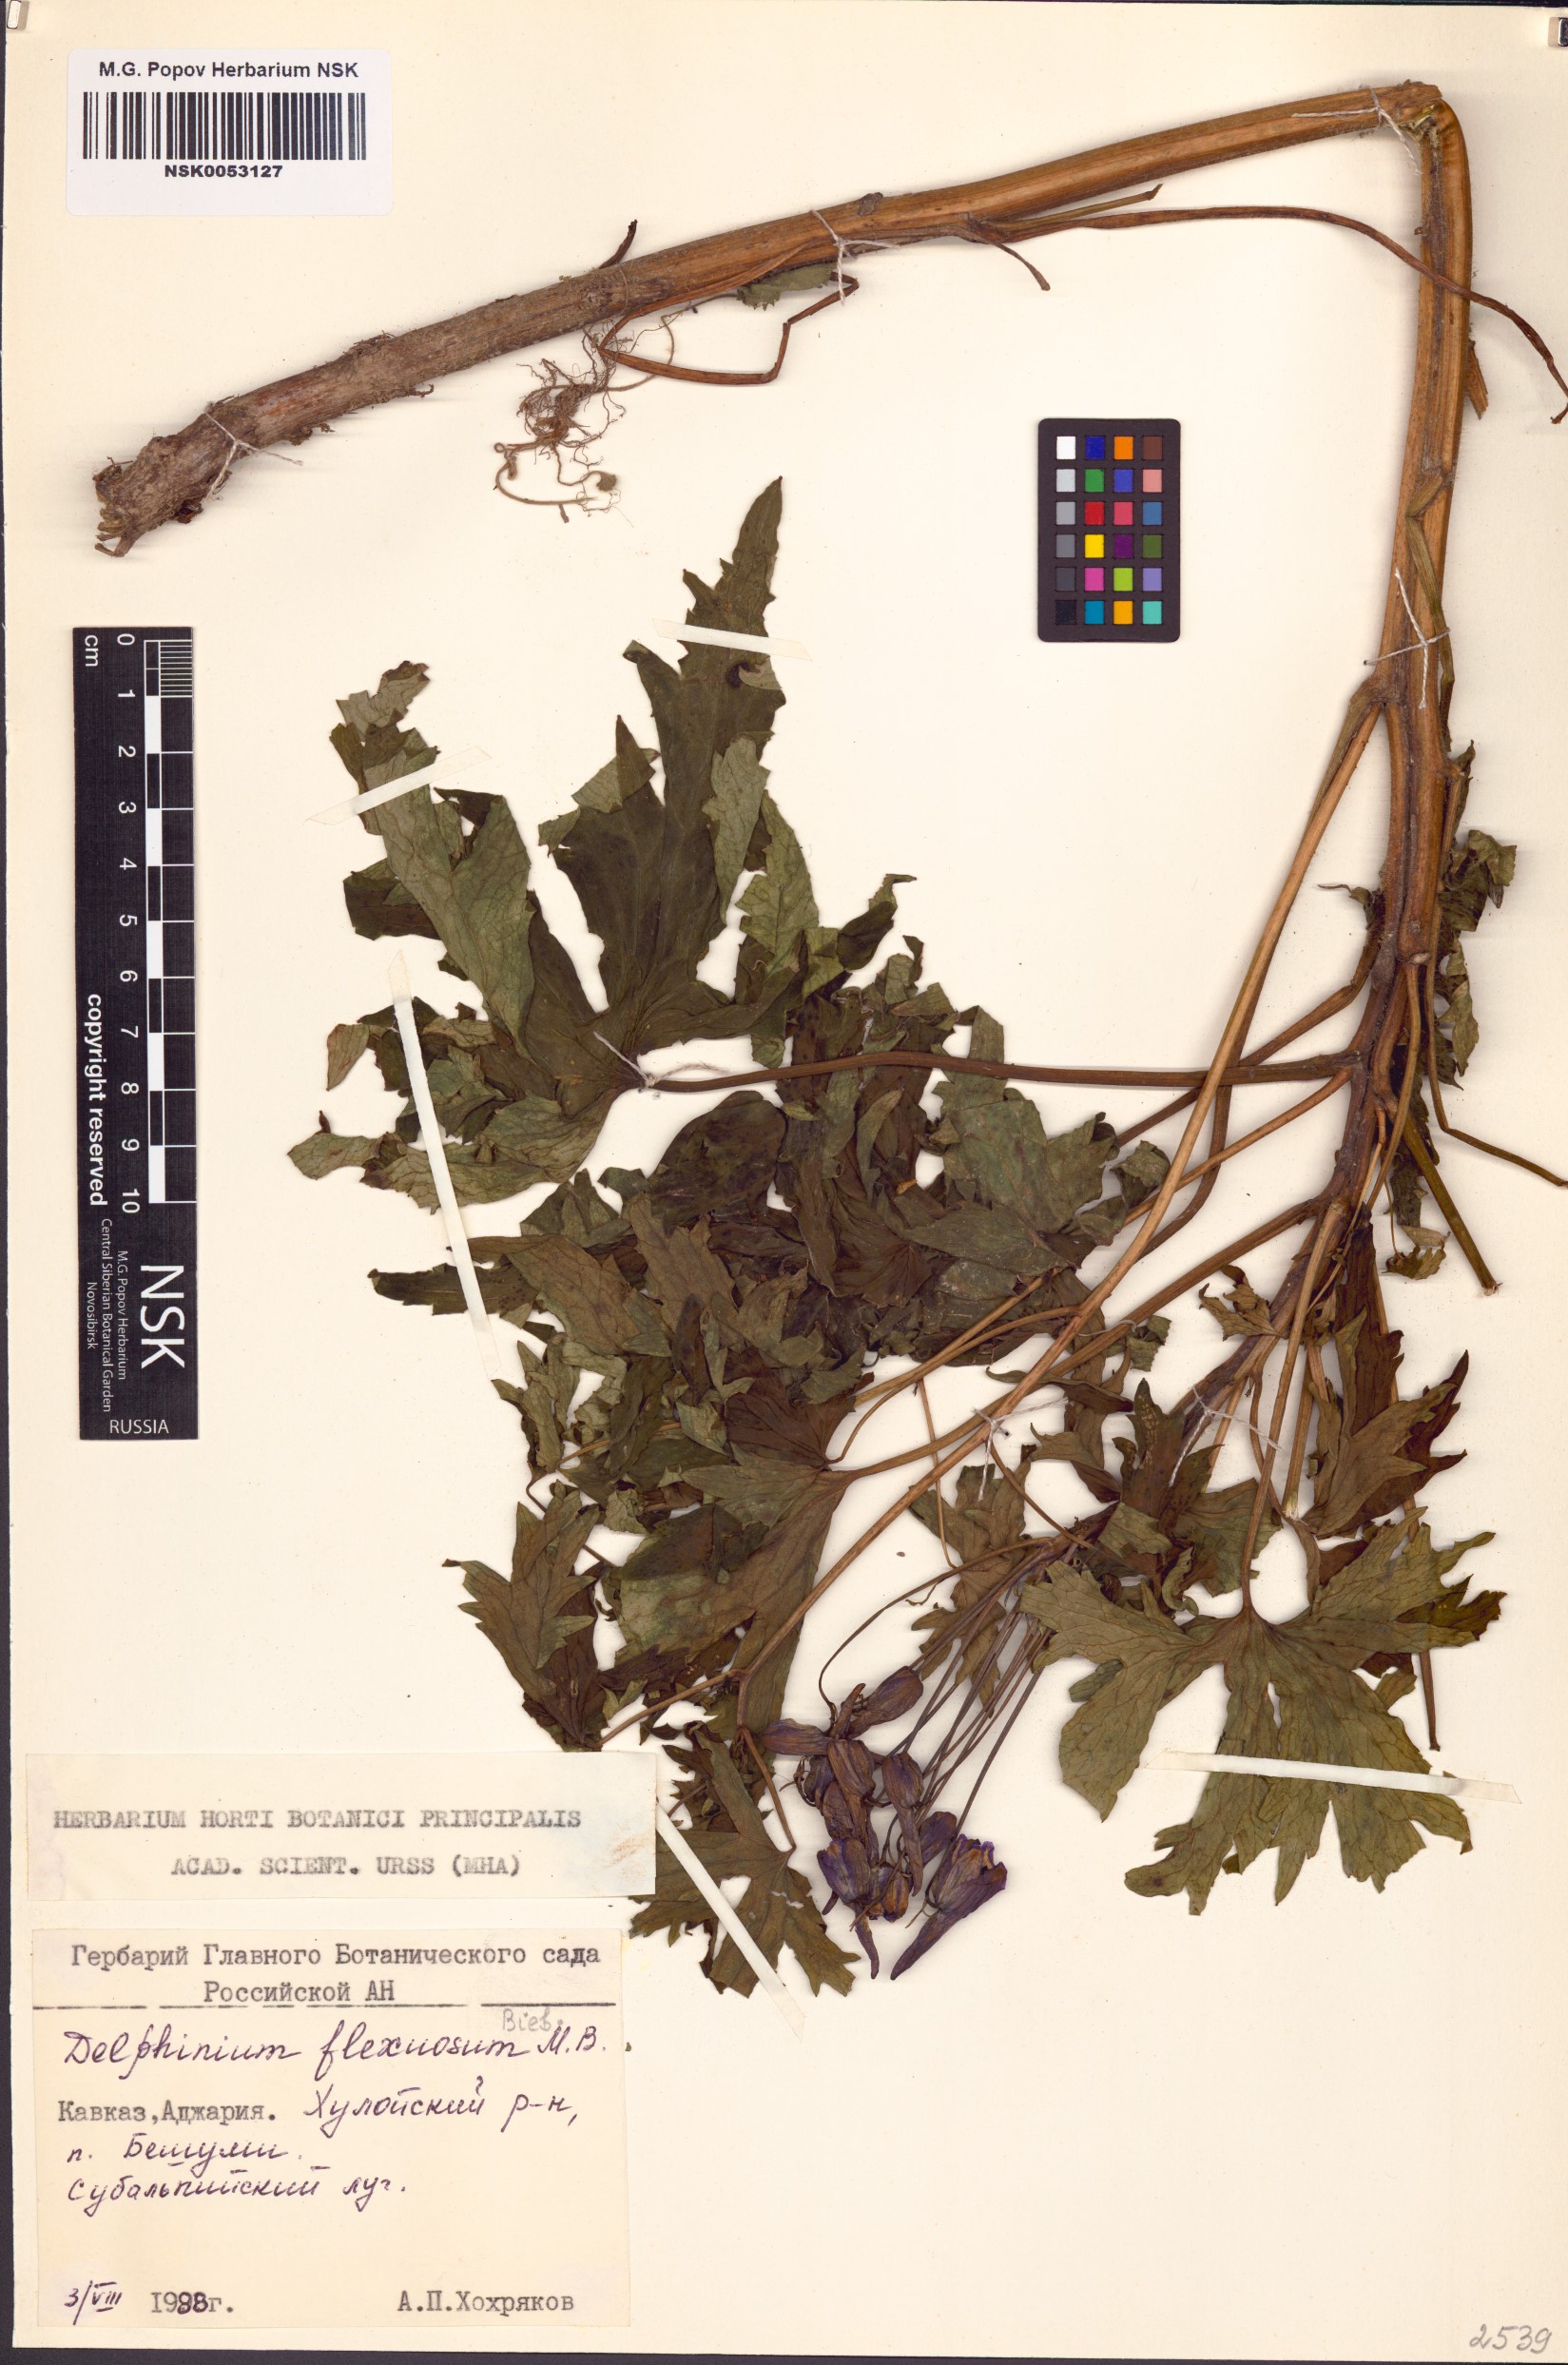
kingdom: Plantae
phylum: Tracheophyta
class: Magnoliopsida
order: Ranunculales
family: Ranunculaceae
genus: Delphinium
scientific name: Delphinium flexuosum
